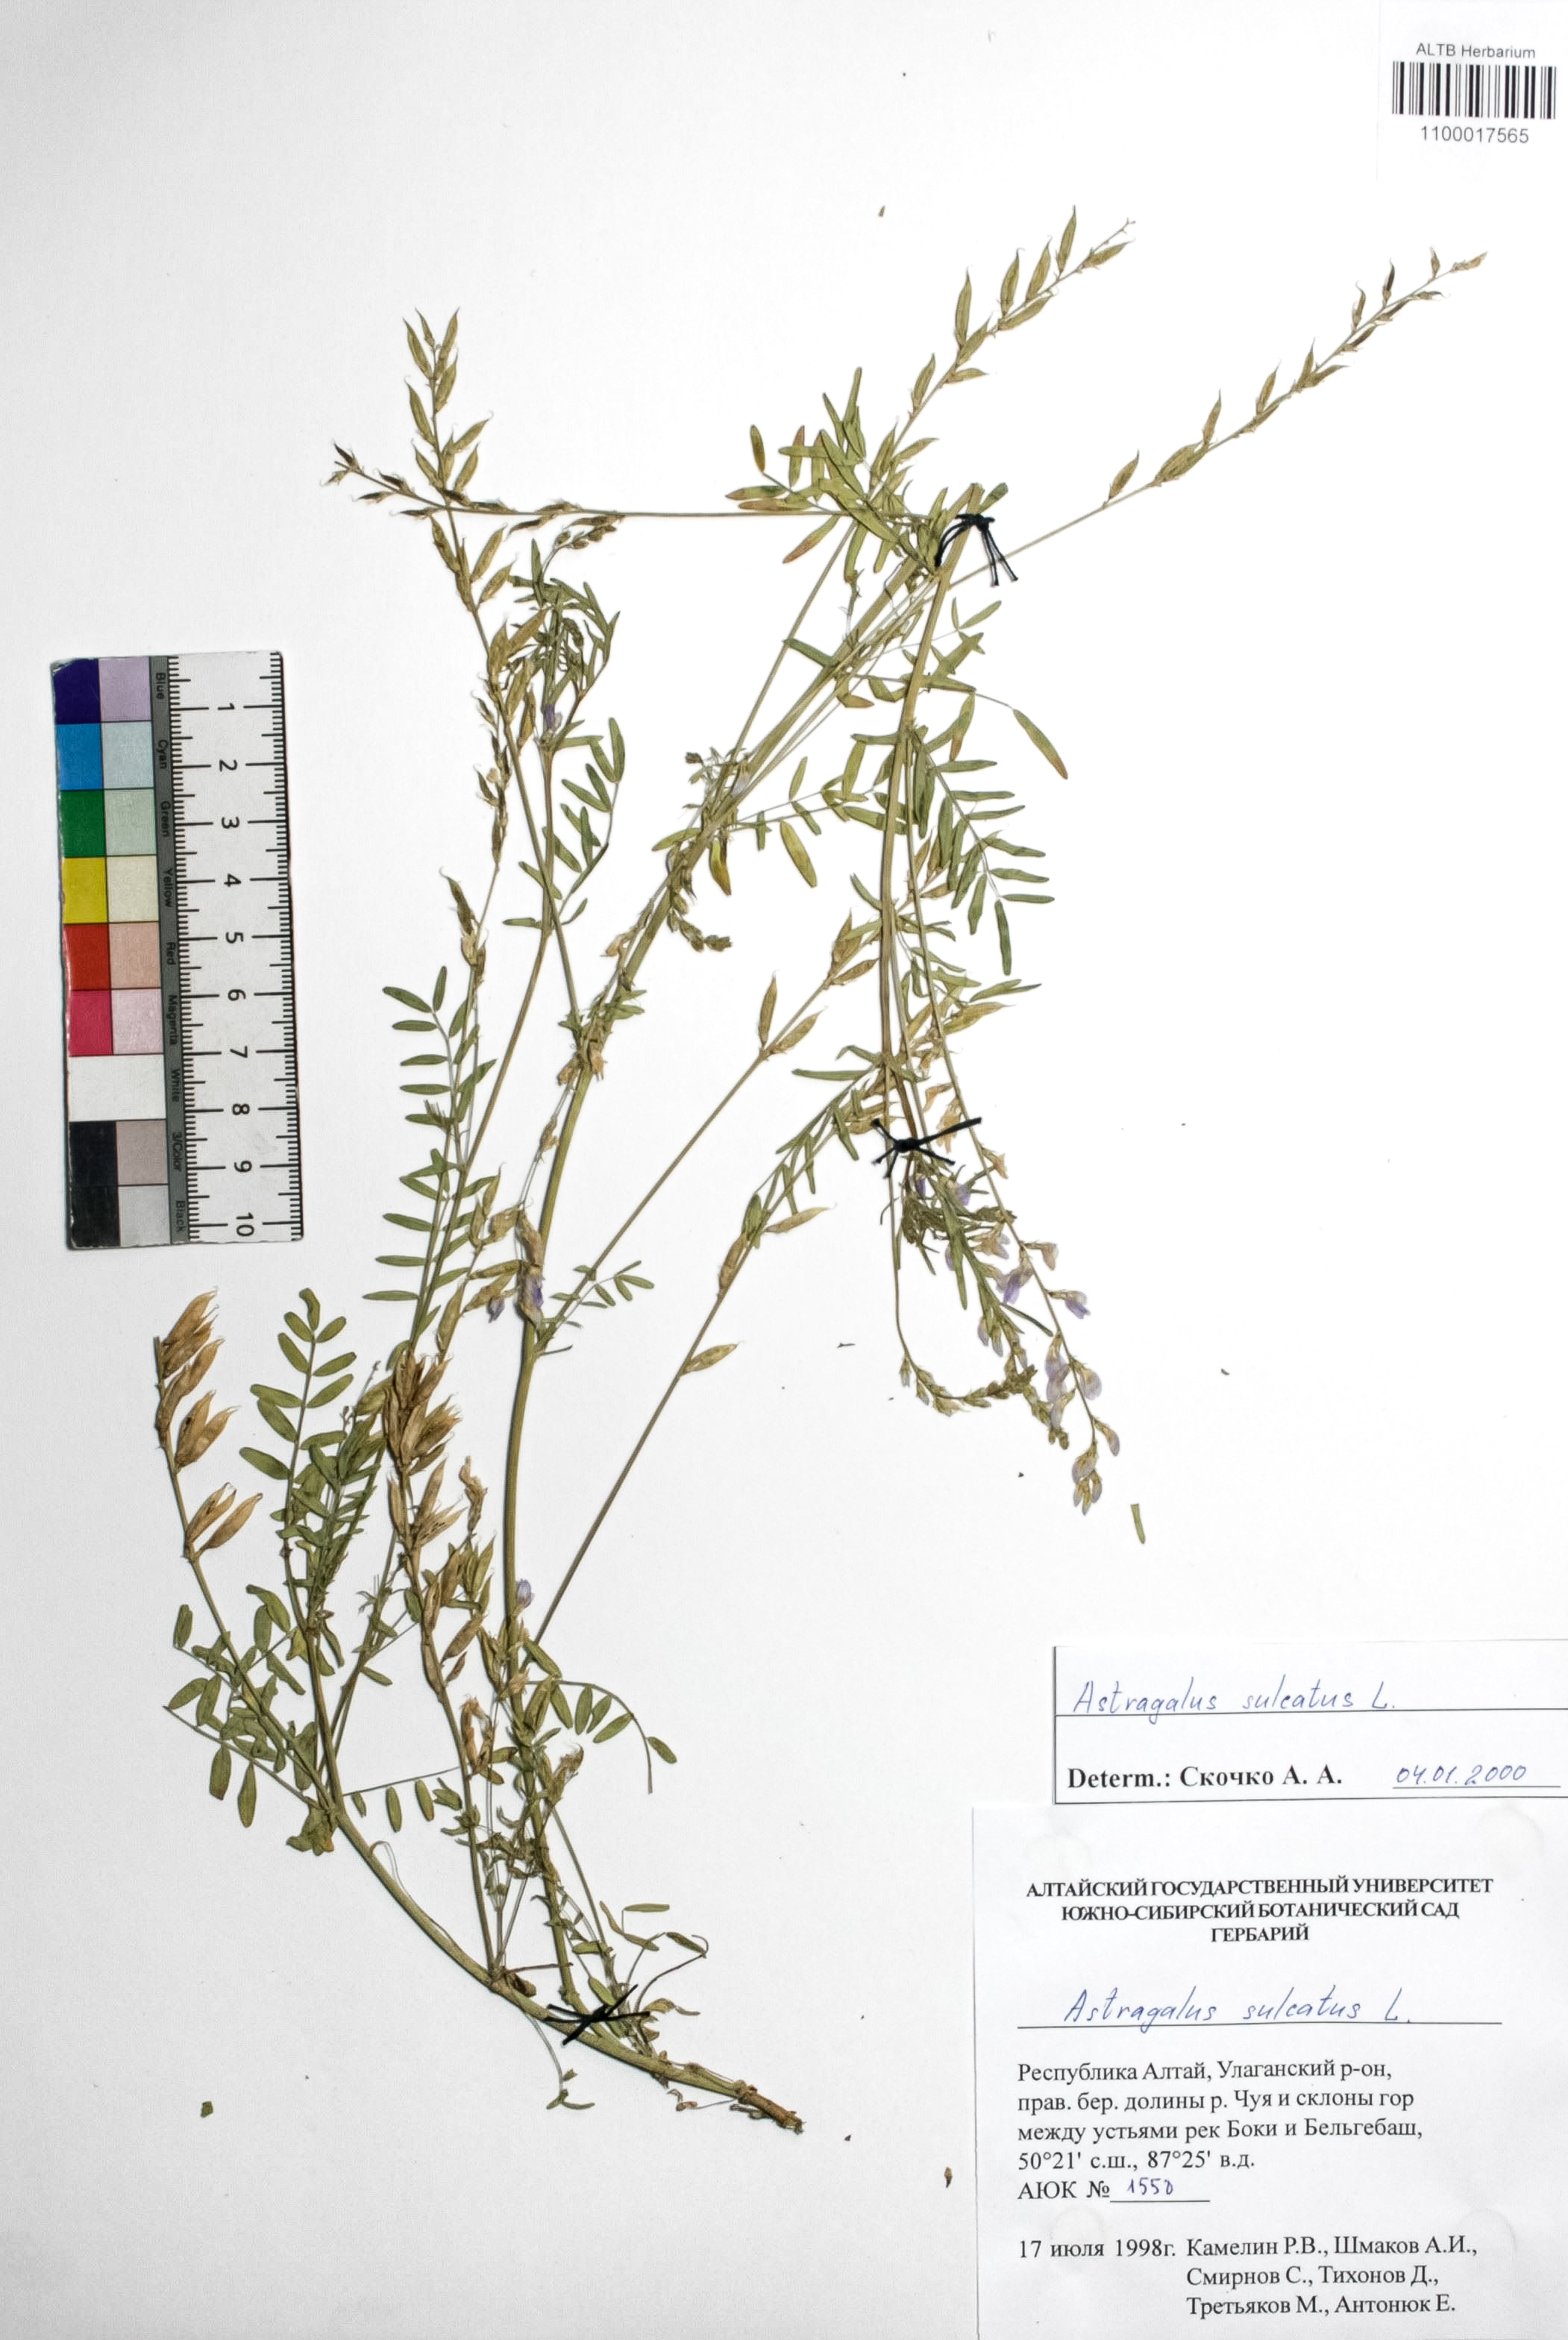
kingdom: Plantae
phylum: Tracheophyta
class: Magnoliopsida
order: Fabales
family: Fabaceae
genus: Astragalus
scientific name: Astragalus sulcatus
